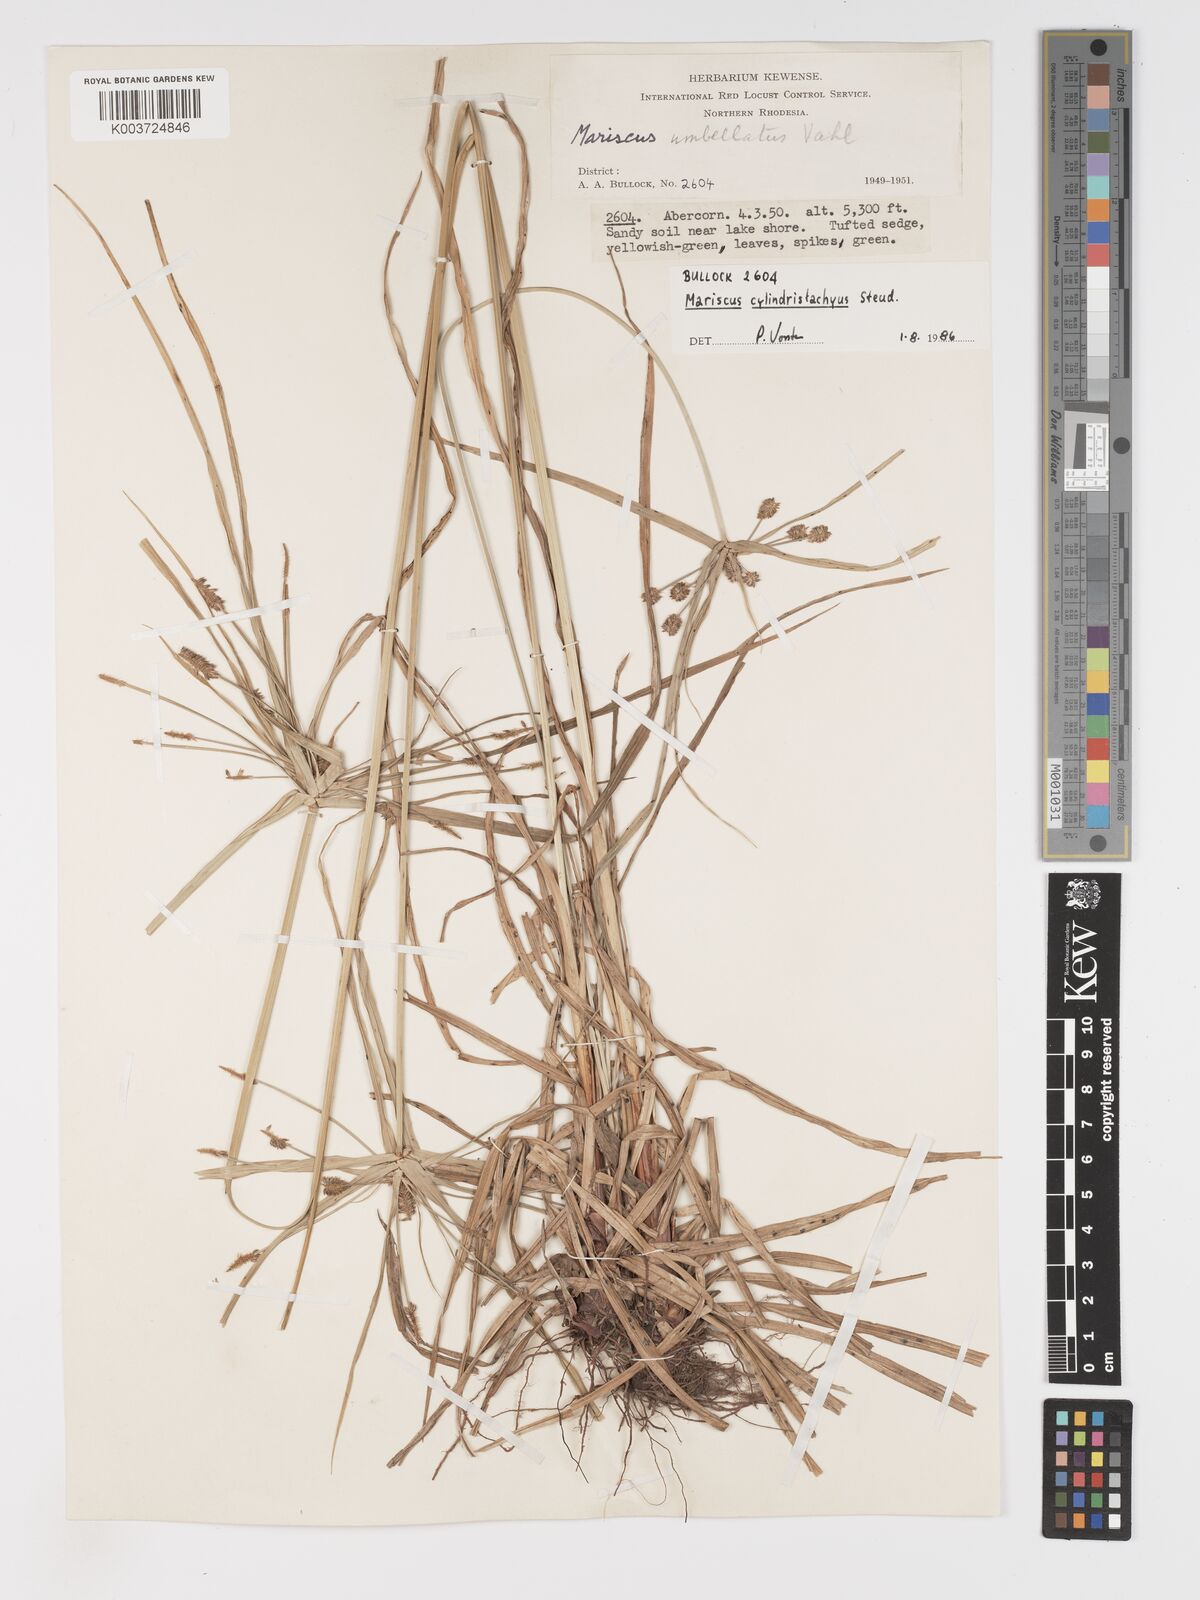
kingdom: Plantae
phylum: Tracheophyta
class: Liliopsida
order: Poales
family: Cyperaceae
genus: Cyperus
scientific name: Cyperus cyperoides
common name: Pacific island flat sedge
